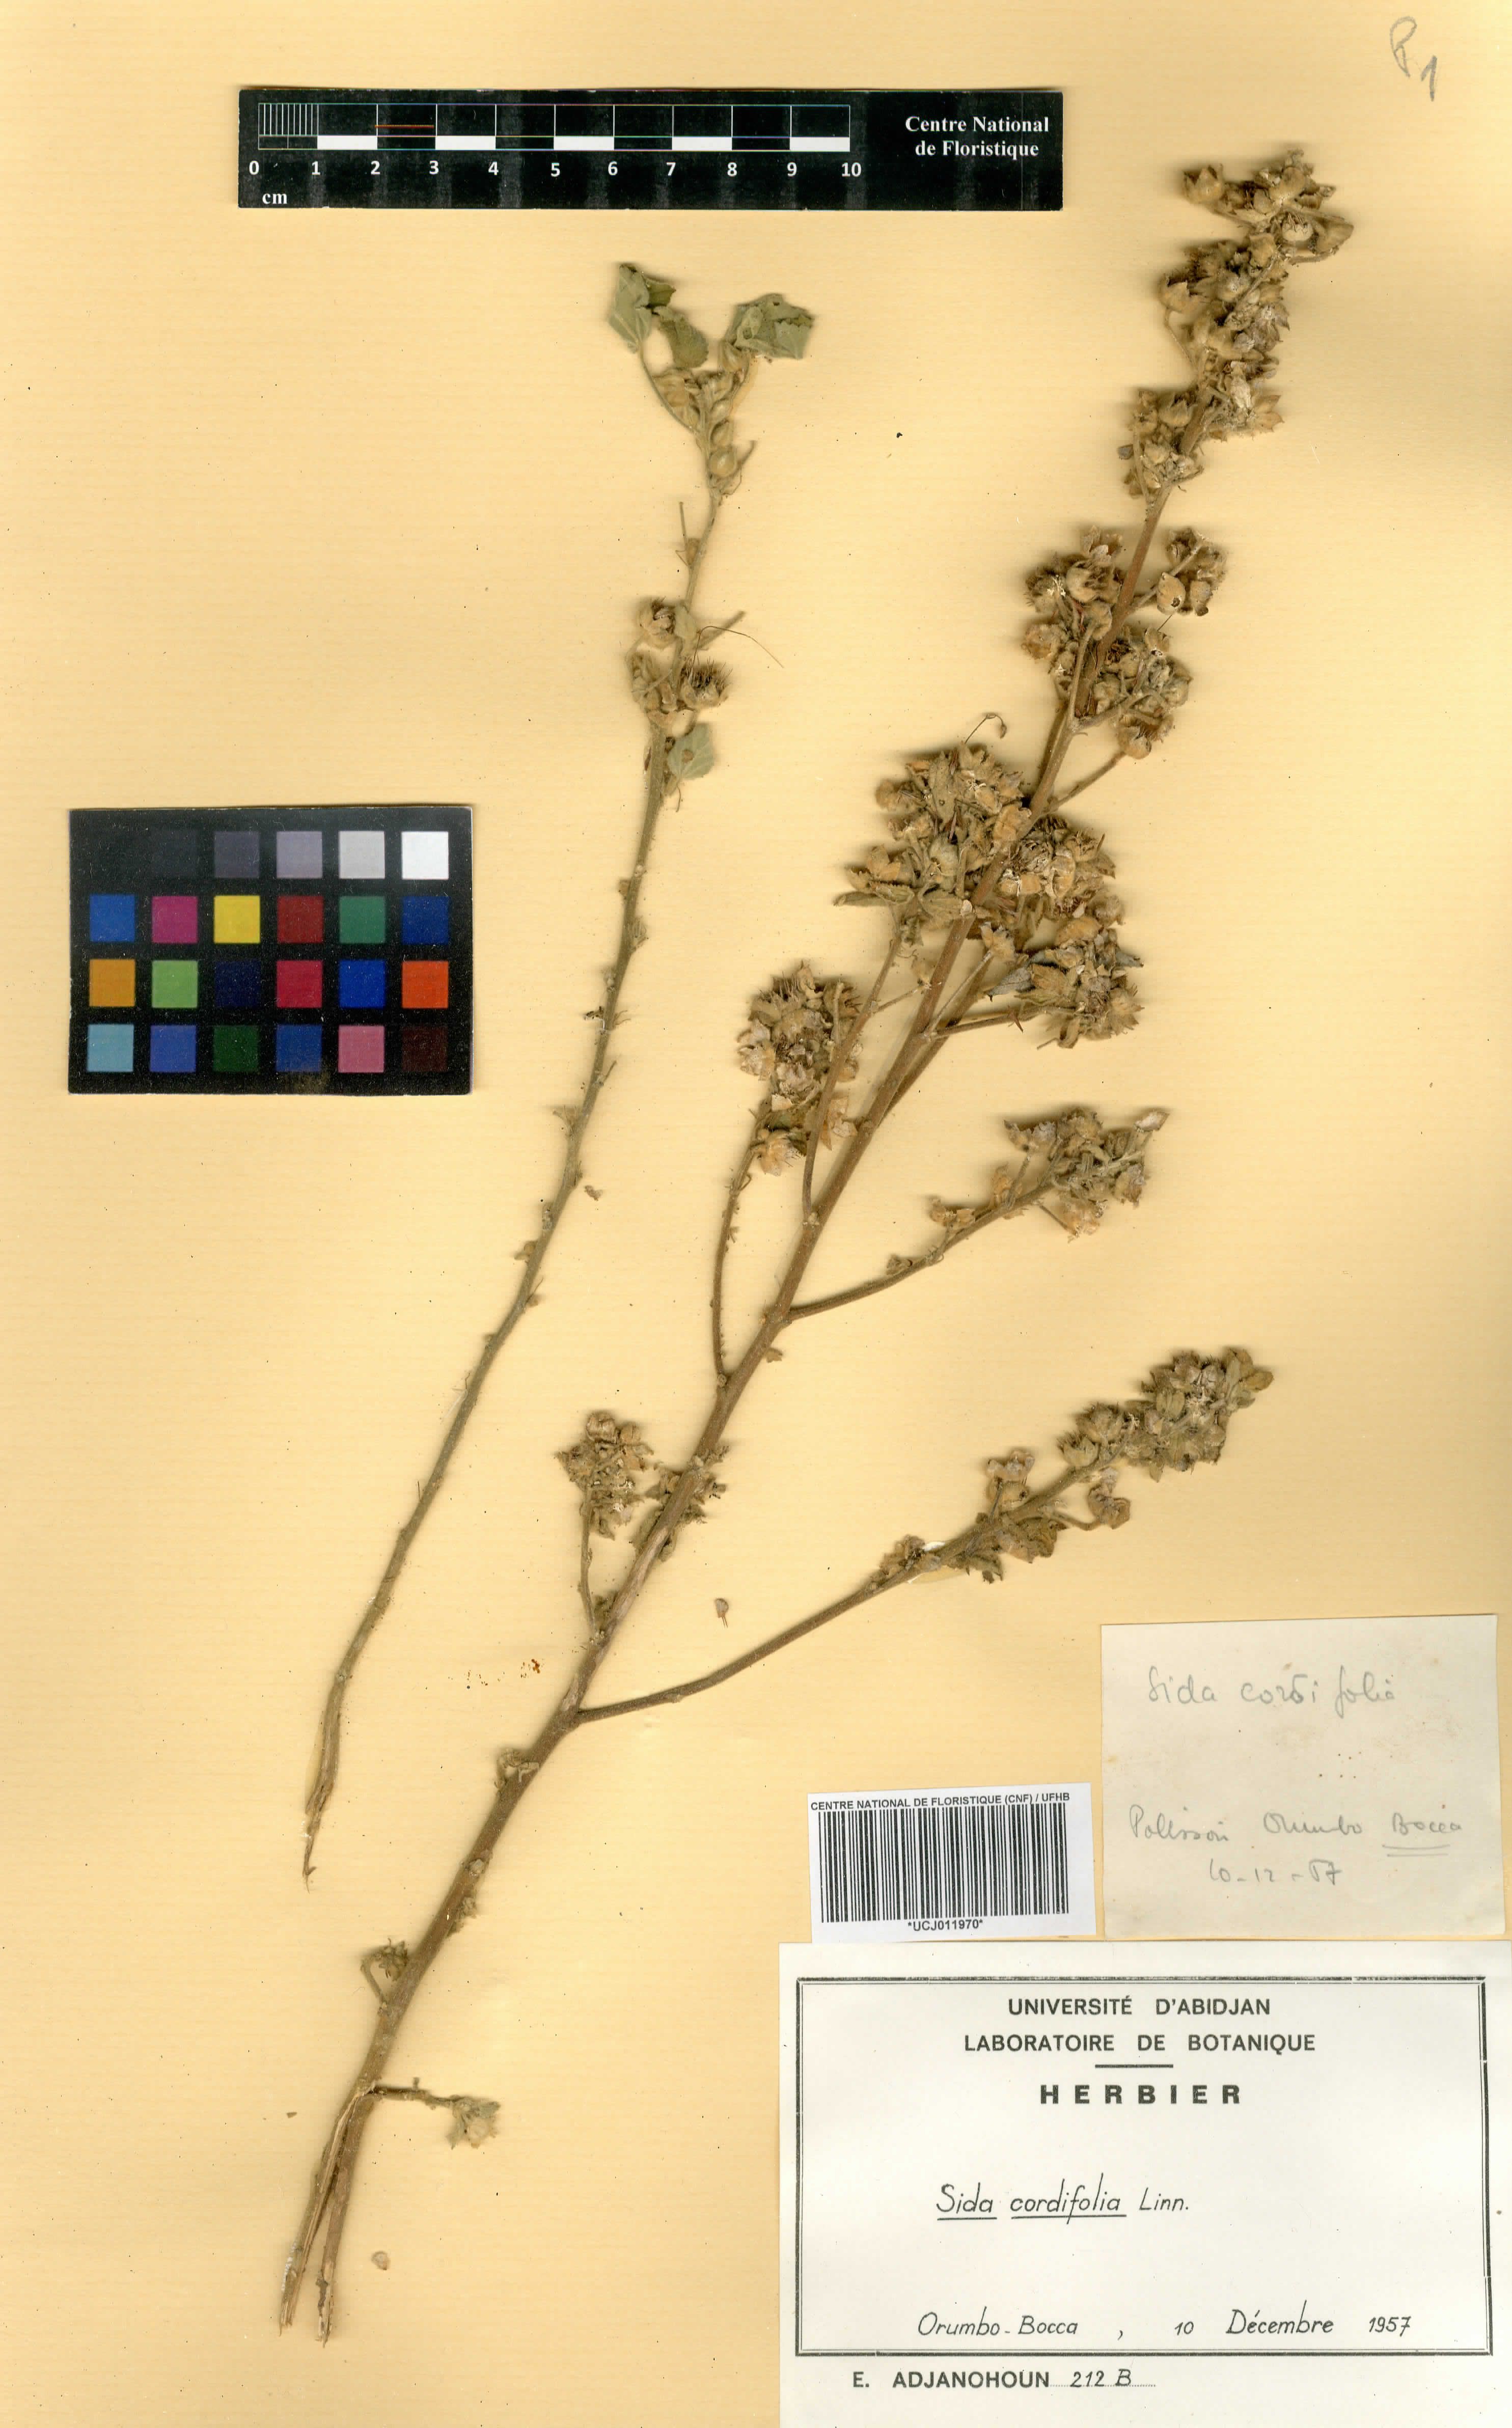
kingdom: Plantae
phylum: Tracheophyta
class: Magnoliopsida
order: Malvales
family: Malvaceae
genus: Sida
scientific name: Sida cordifolia
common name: Ilima
